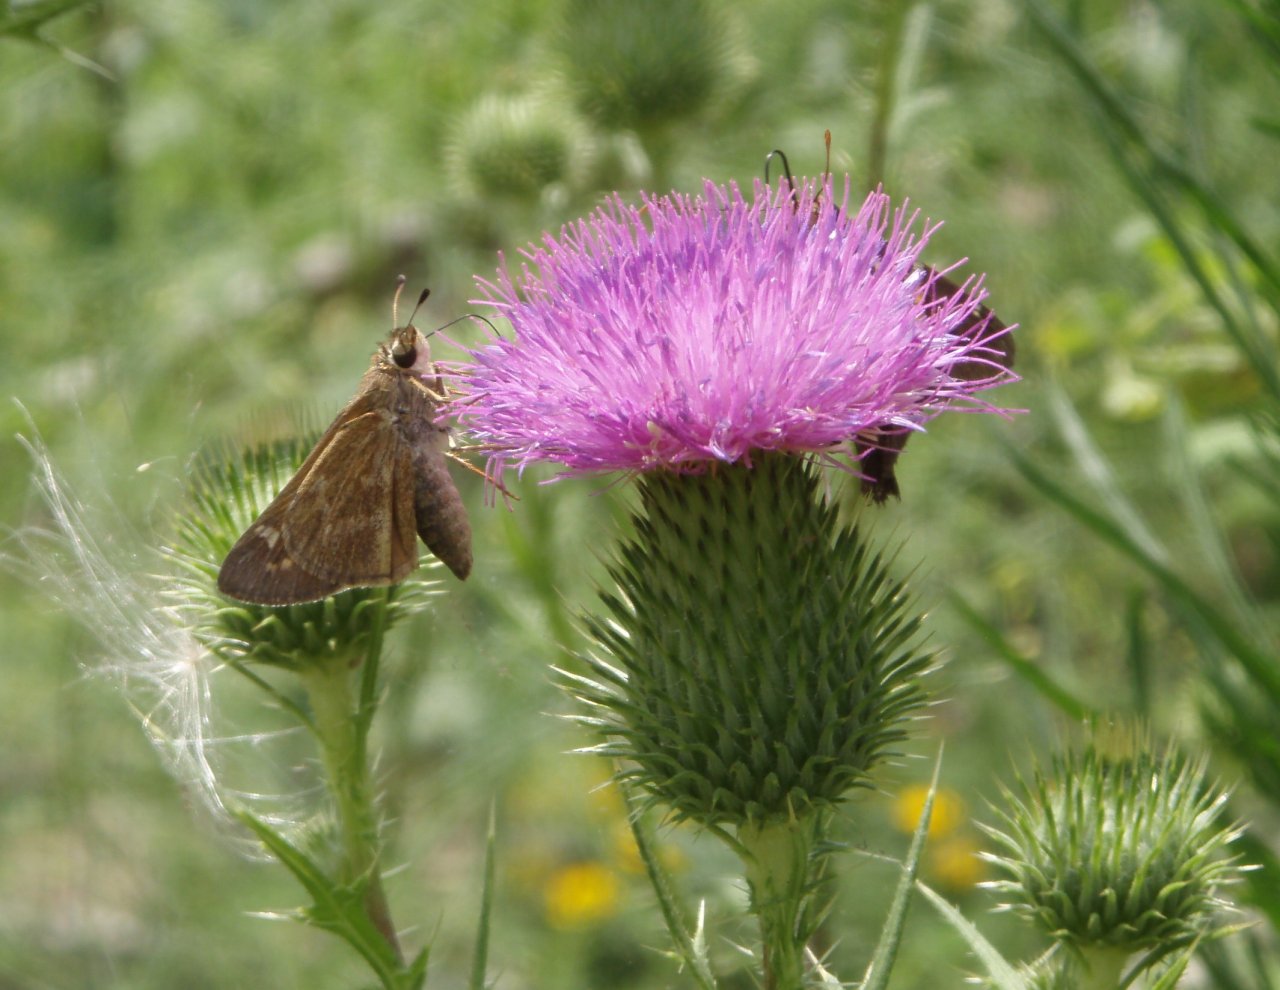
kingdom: Animalia
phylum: Arthropoda
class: Insecta
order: Lepidoptera
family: Hesperiidae
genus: Atalopedes
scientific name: Atalopedes campestris
